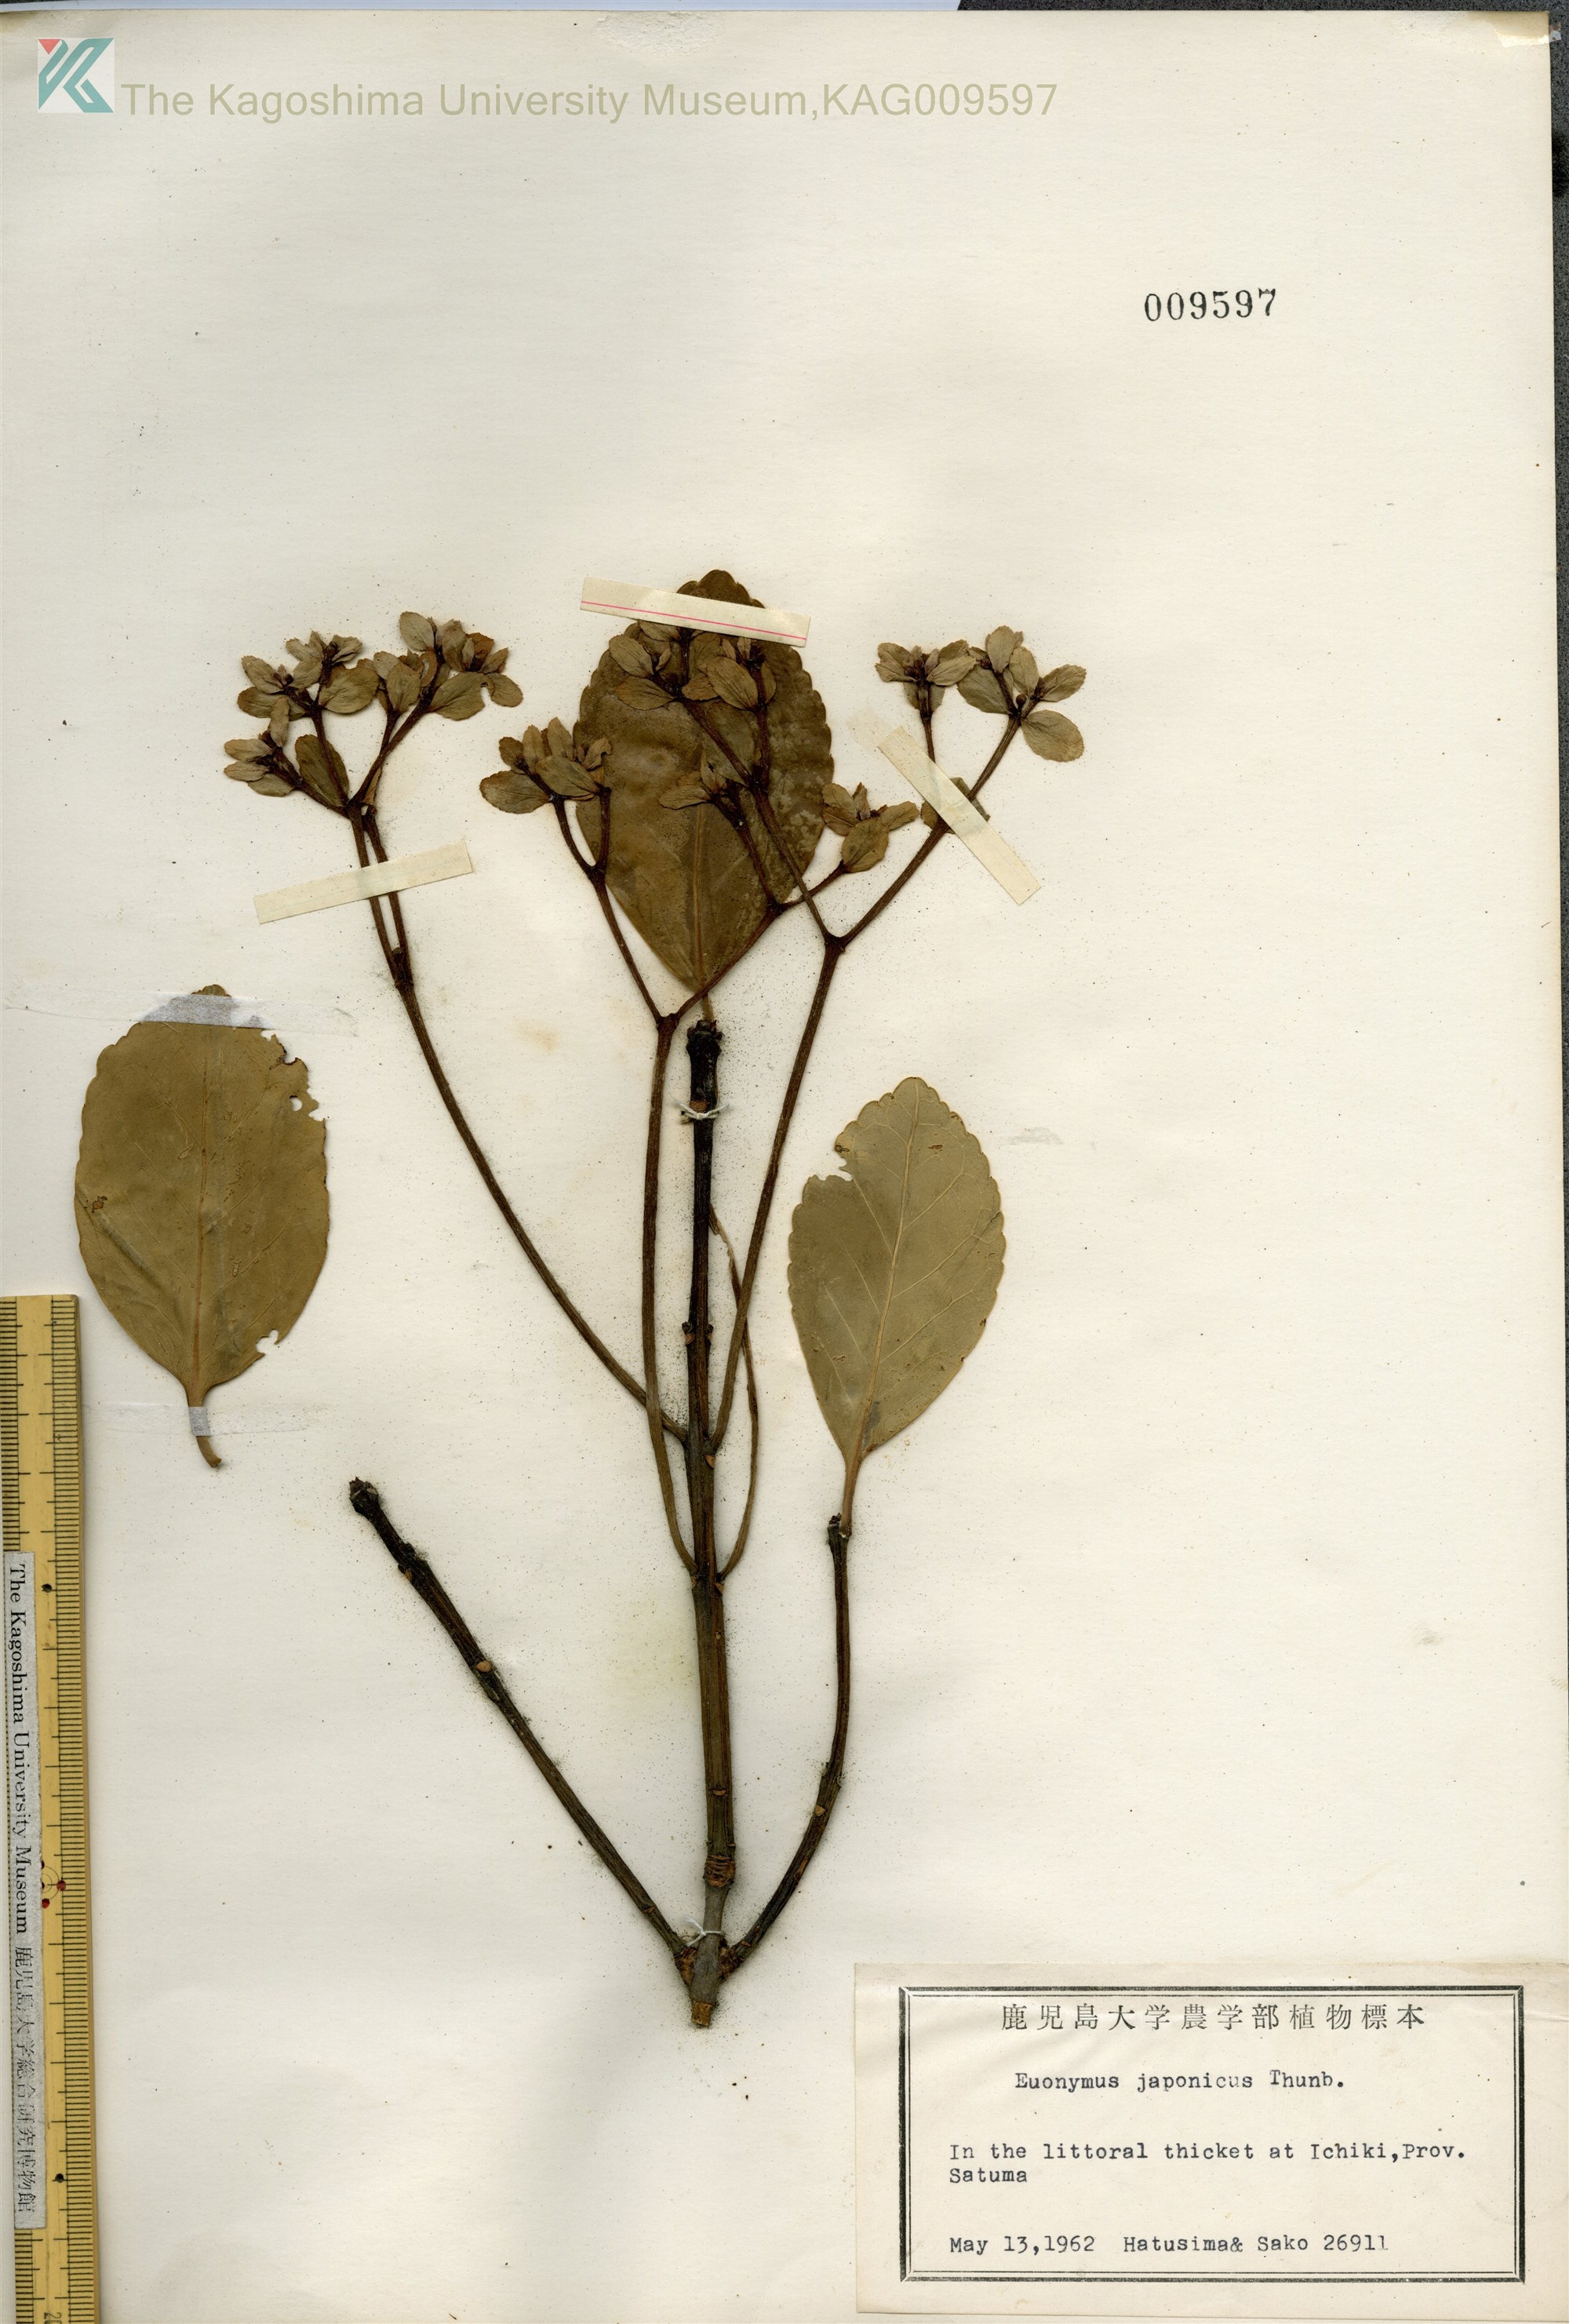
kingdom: Plantae
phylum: Tracheophyta
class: Magnoliopsida
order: Celastrales
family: Celastraceae
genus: Euonymus
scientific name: Euonymus japonicus
